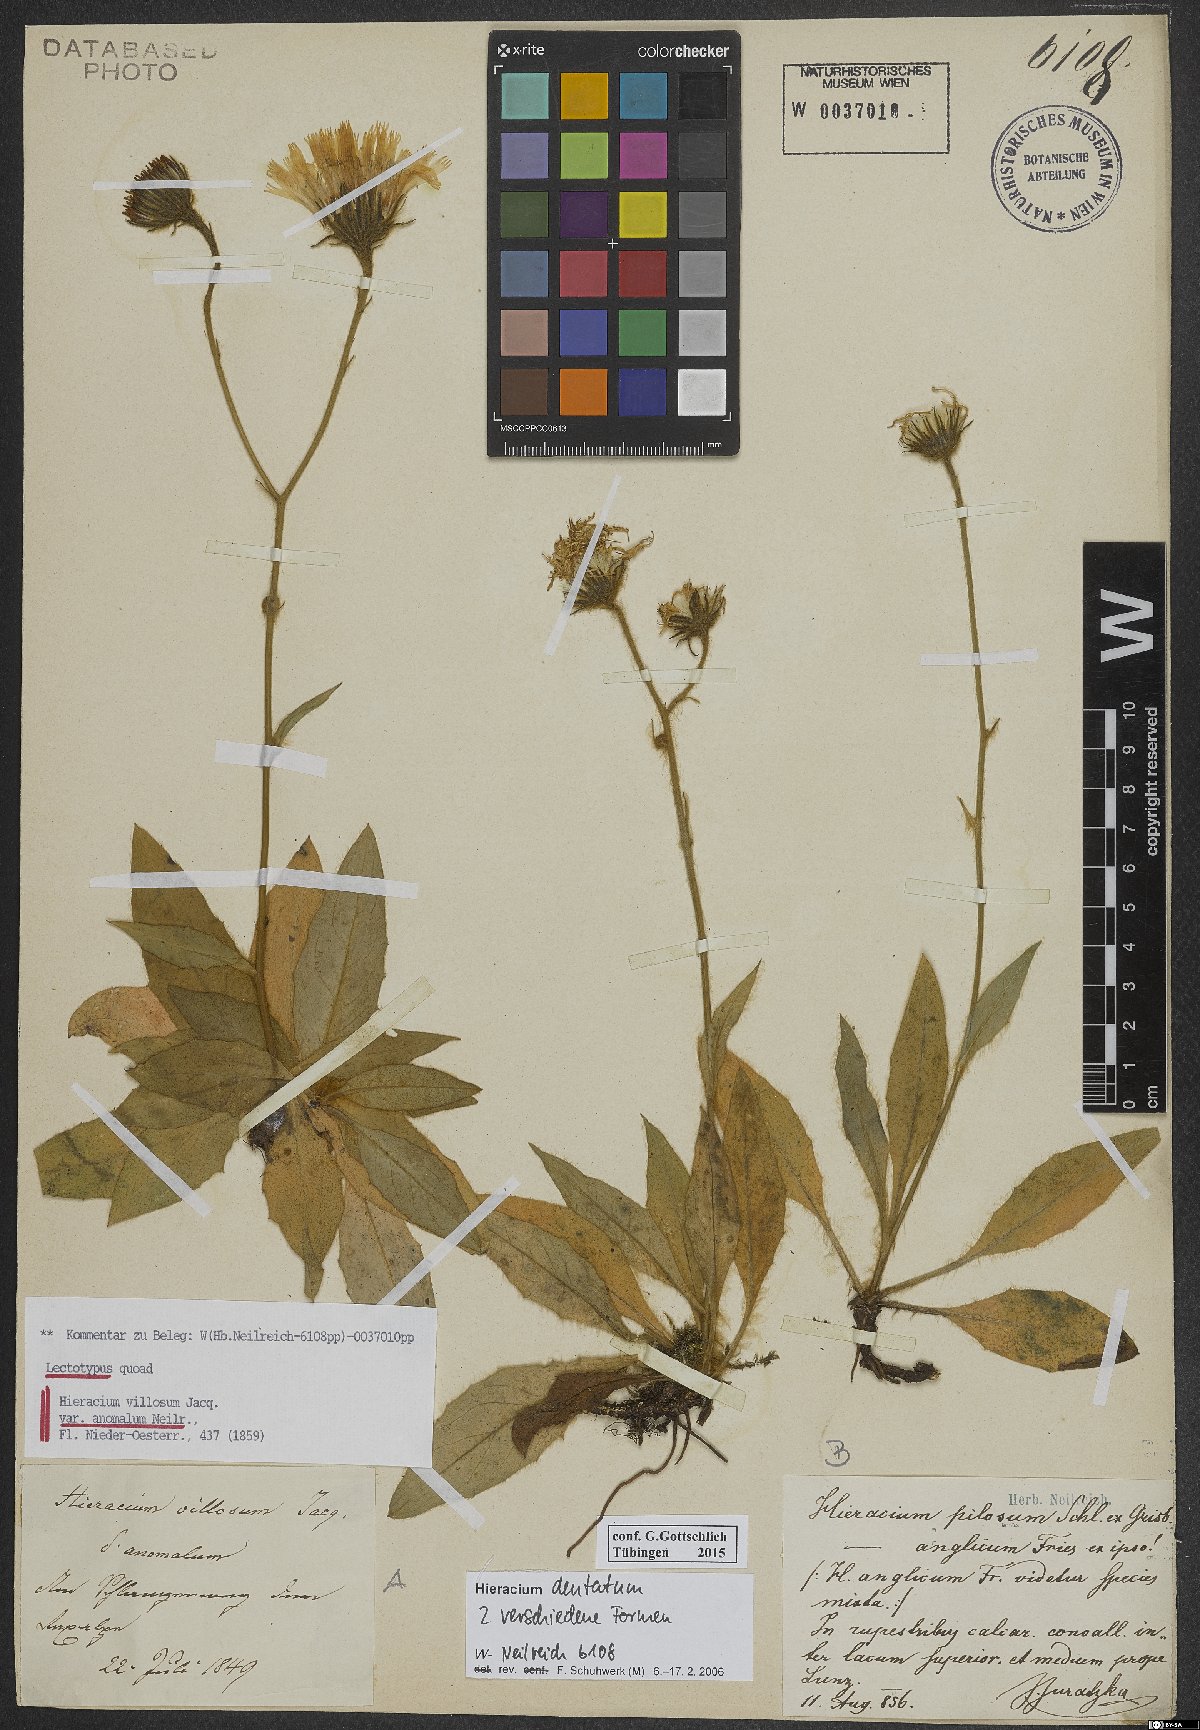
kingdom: Plantae
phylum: Tracheophyta
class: Magnoliopsida
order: Asterales
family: Asteraceae
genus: Hieracium
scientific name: Hieracium dentatum
